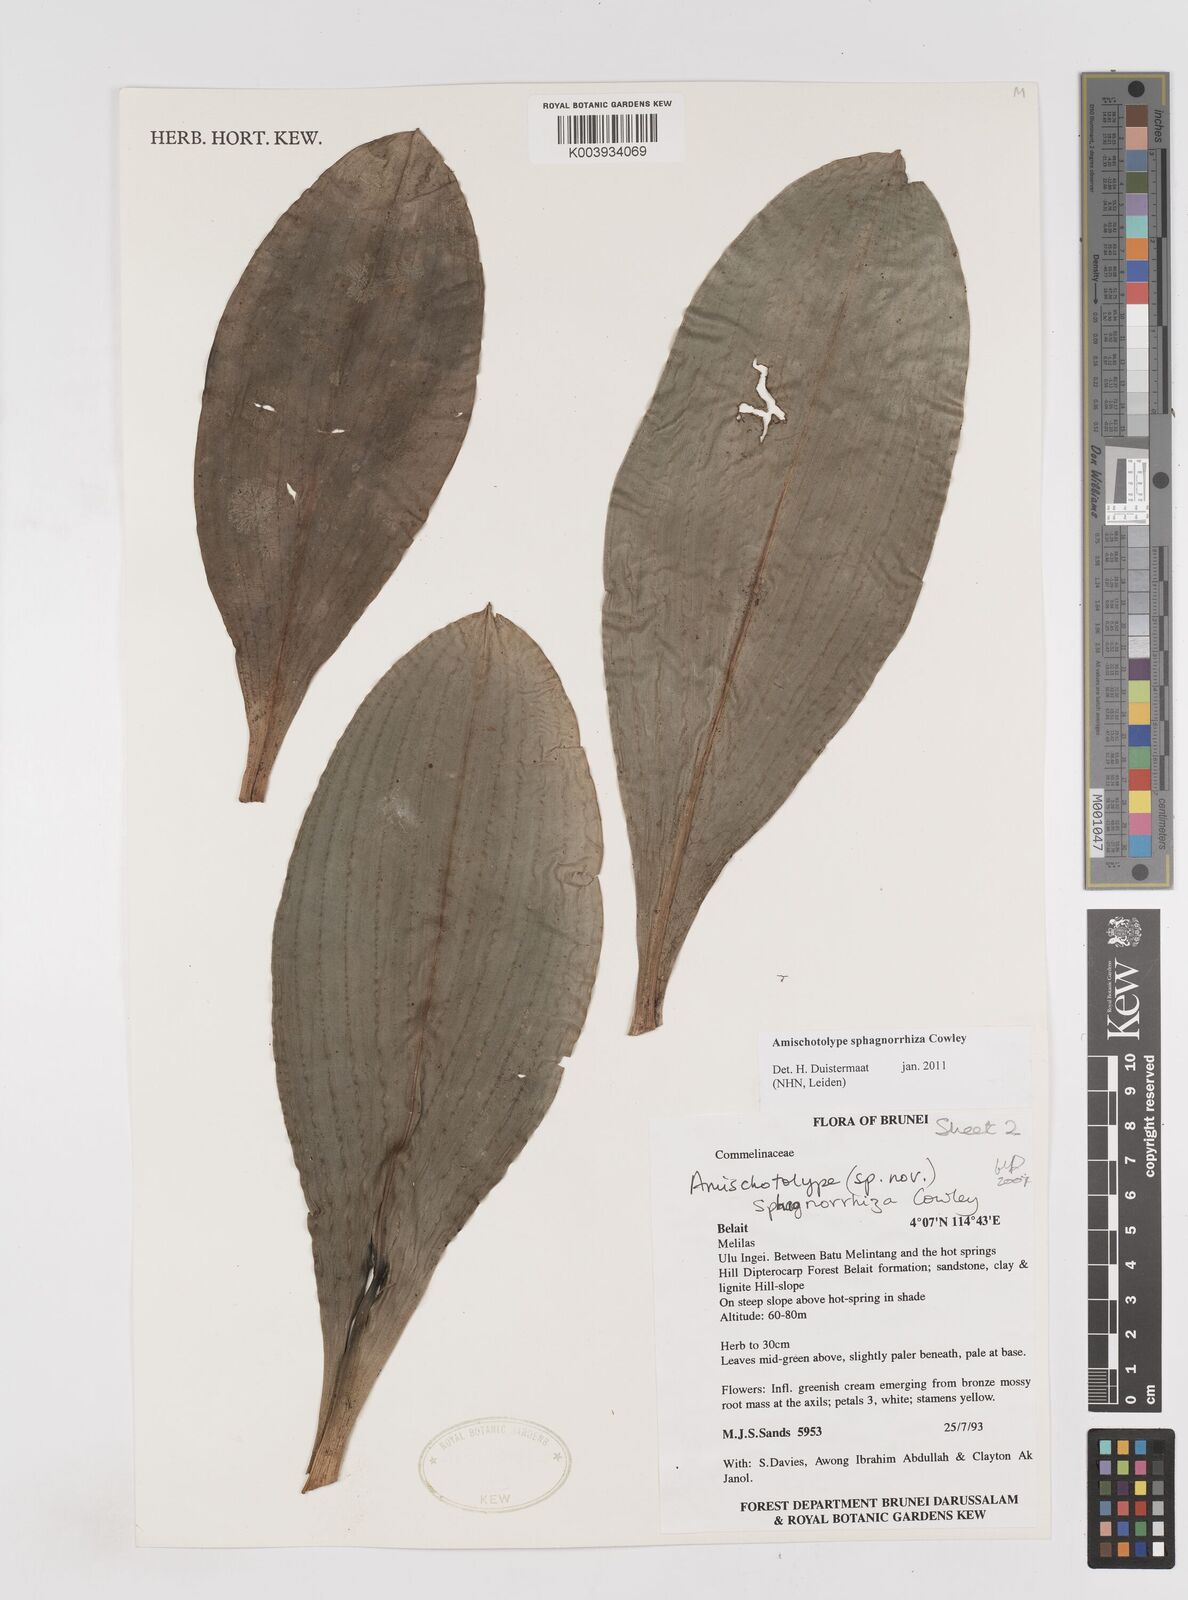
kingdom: Plantae
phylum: Tracheophyta
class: Liliopsida
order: Commelinales
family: Commelinaceae
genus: Amischotolype
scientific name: Amischotolype sphagnorrhiza
